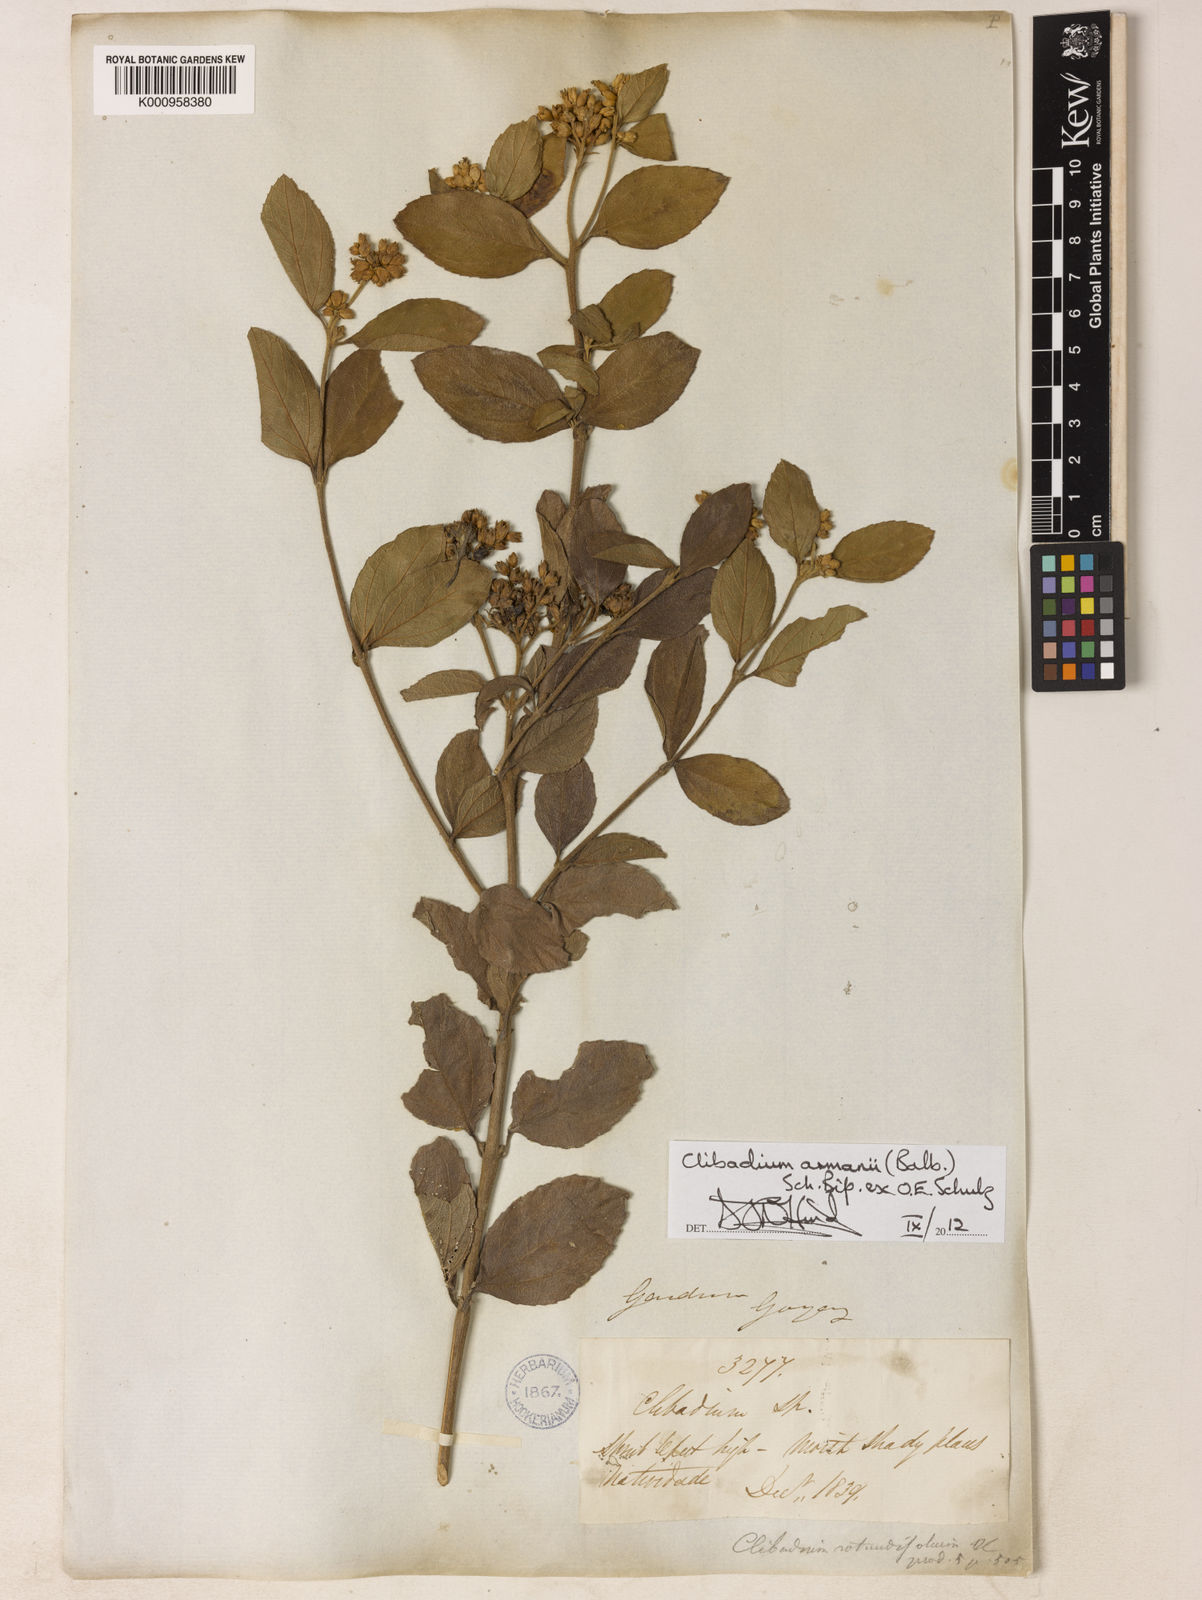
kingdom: Plantae
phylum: Tracheophyta
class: Magnoliopsida
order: Asterales
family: Asteraceae
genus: Clibadium
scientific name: Clibadium armanii
